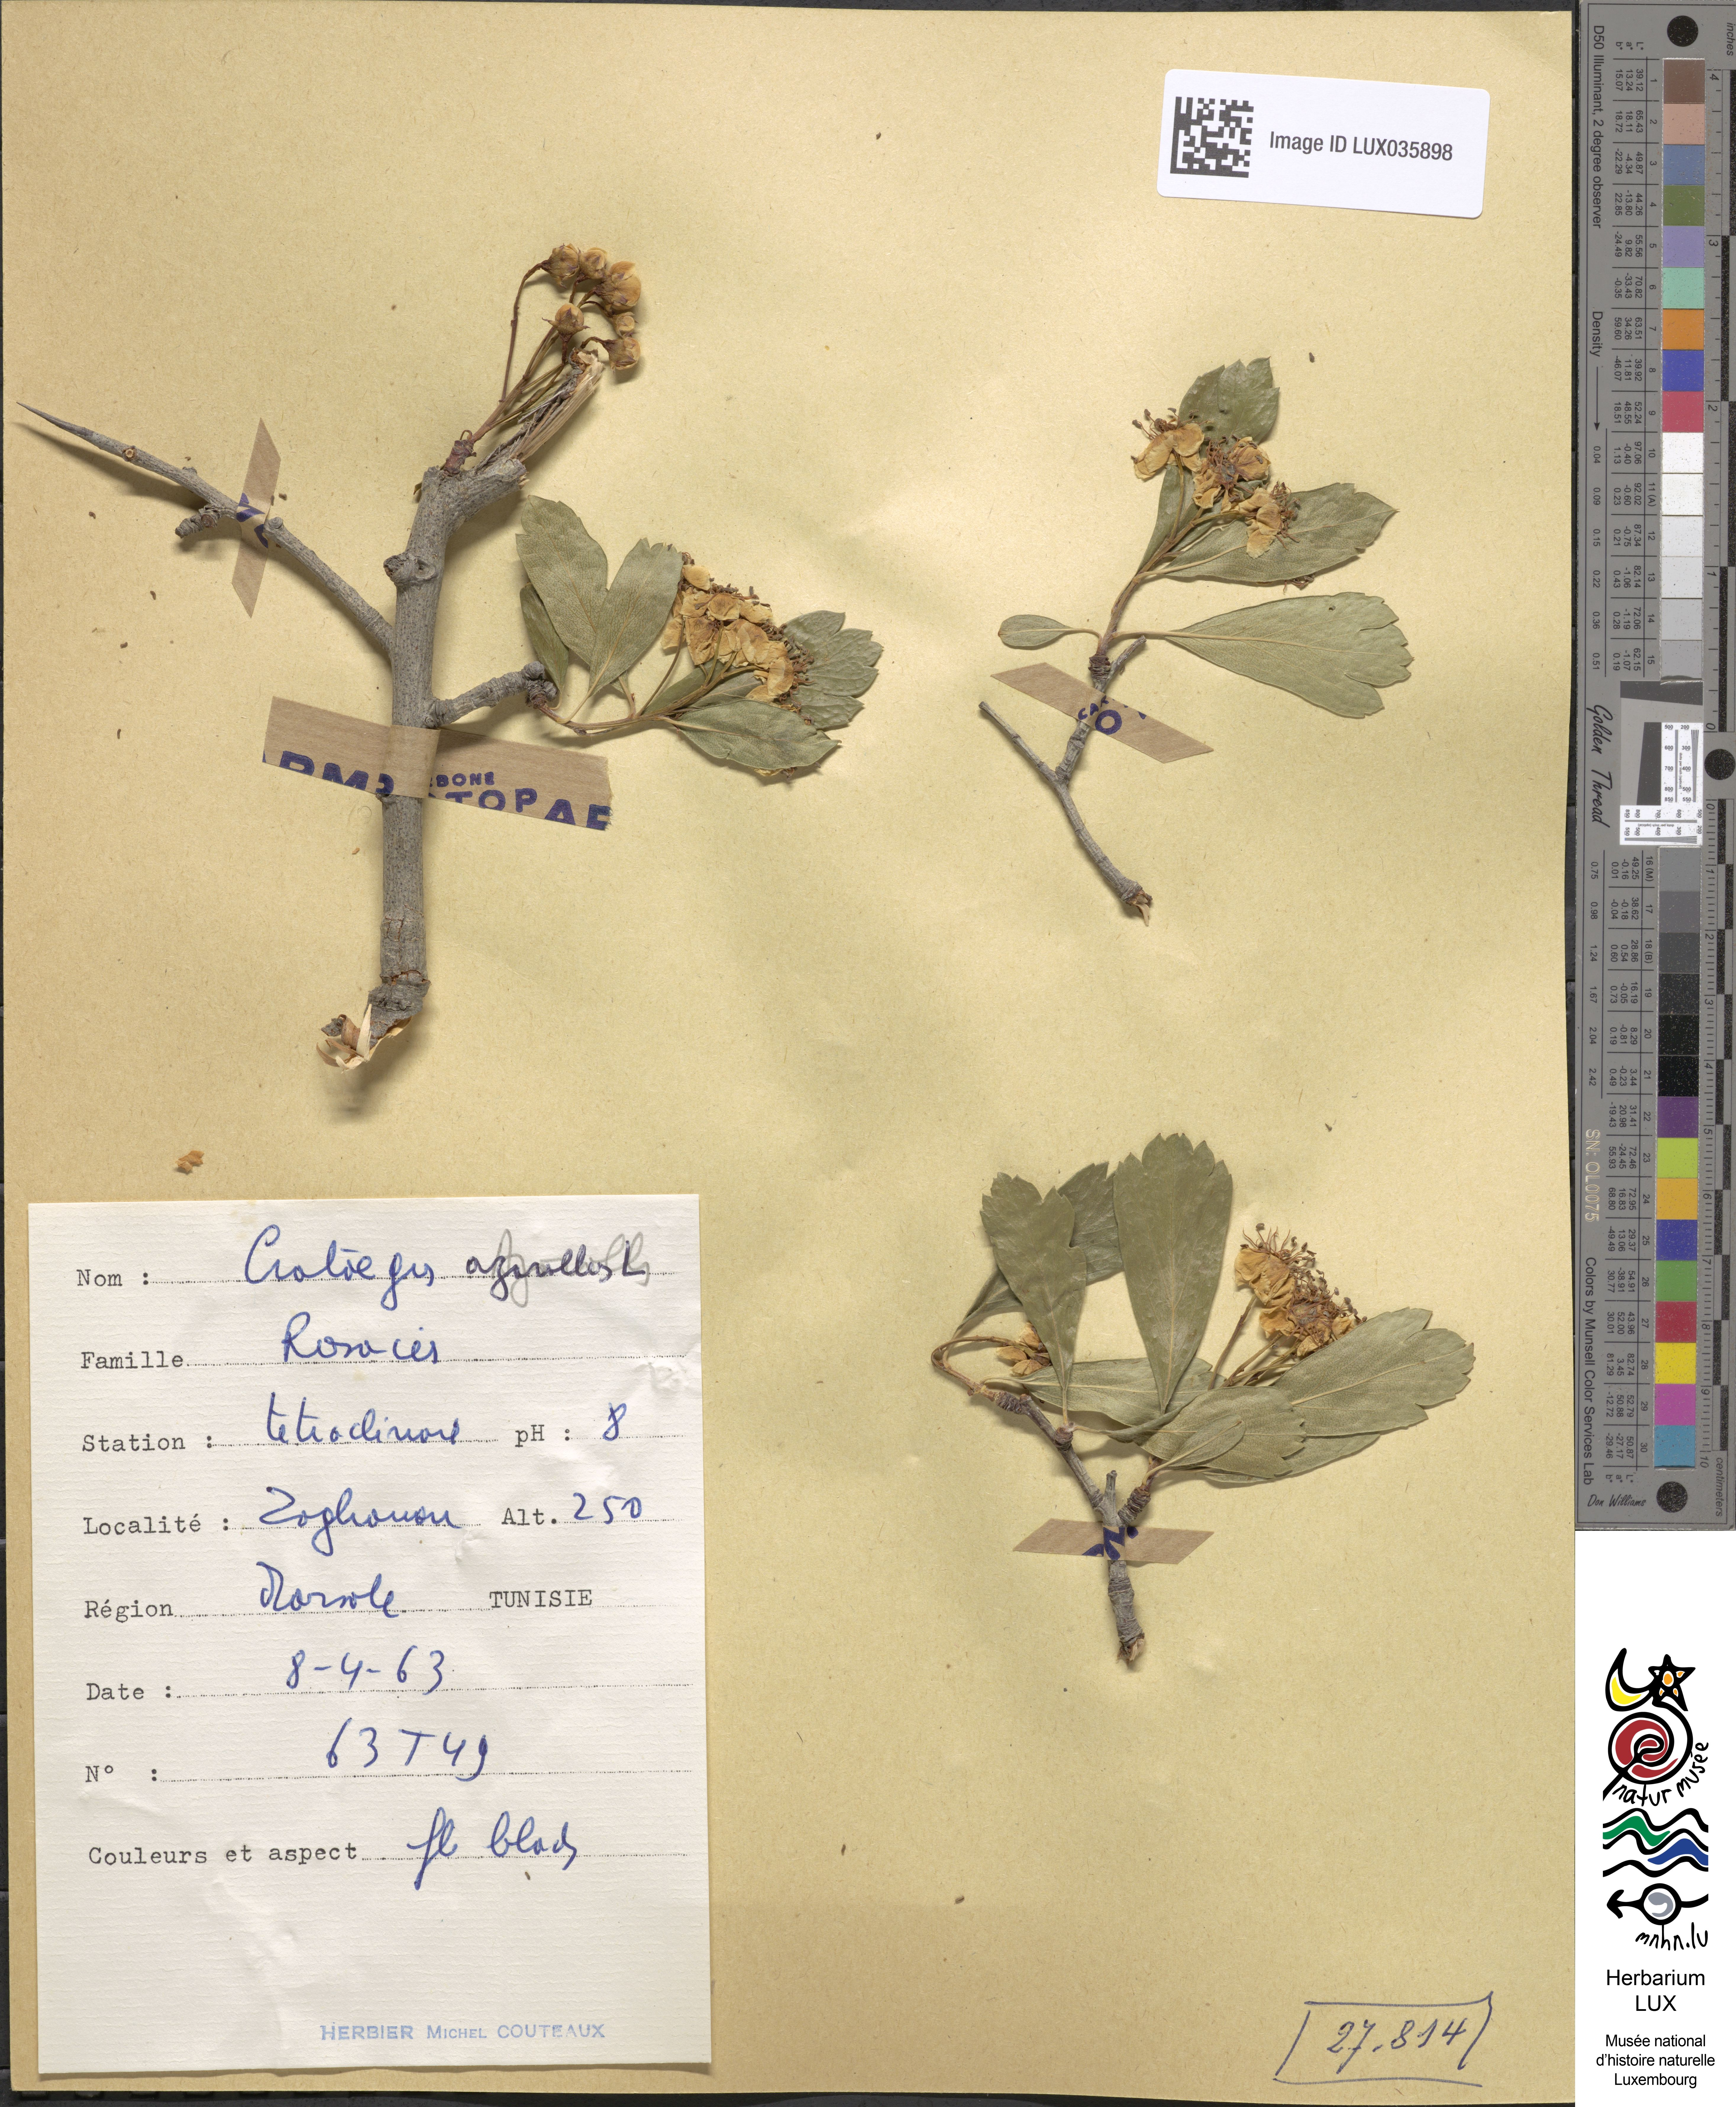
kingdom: Plantae
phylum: Tracheophyta
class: Magnoliopsida
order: Rosales
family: Rosaceae
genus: Crataegus
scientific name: Crataegus azarolus
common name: Azarole
